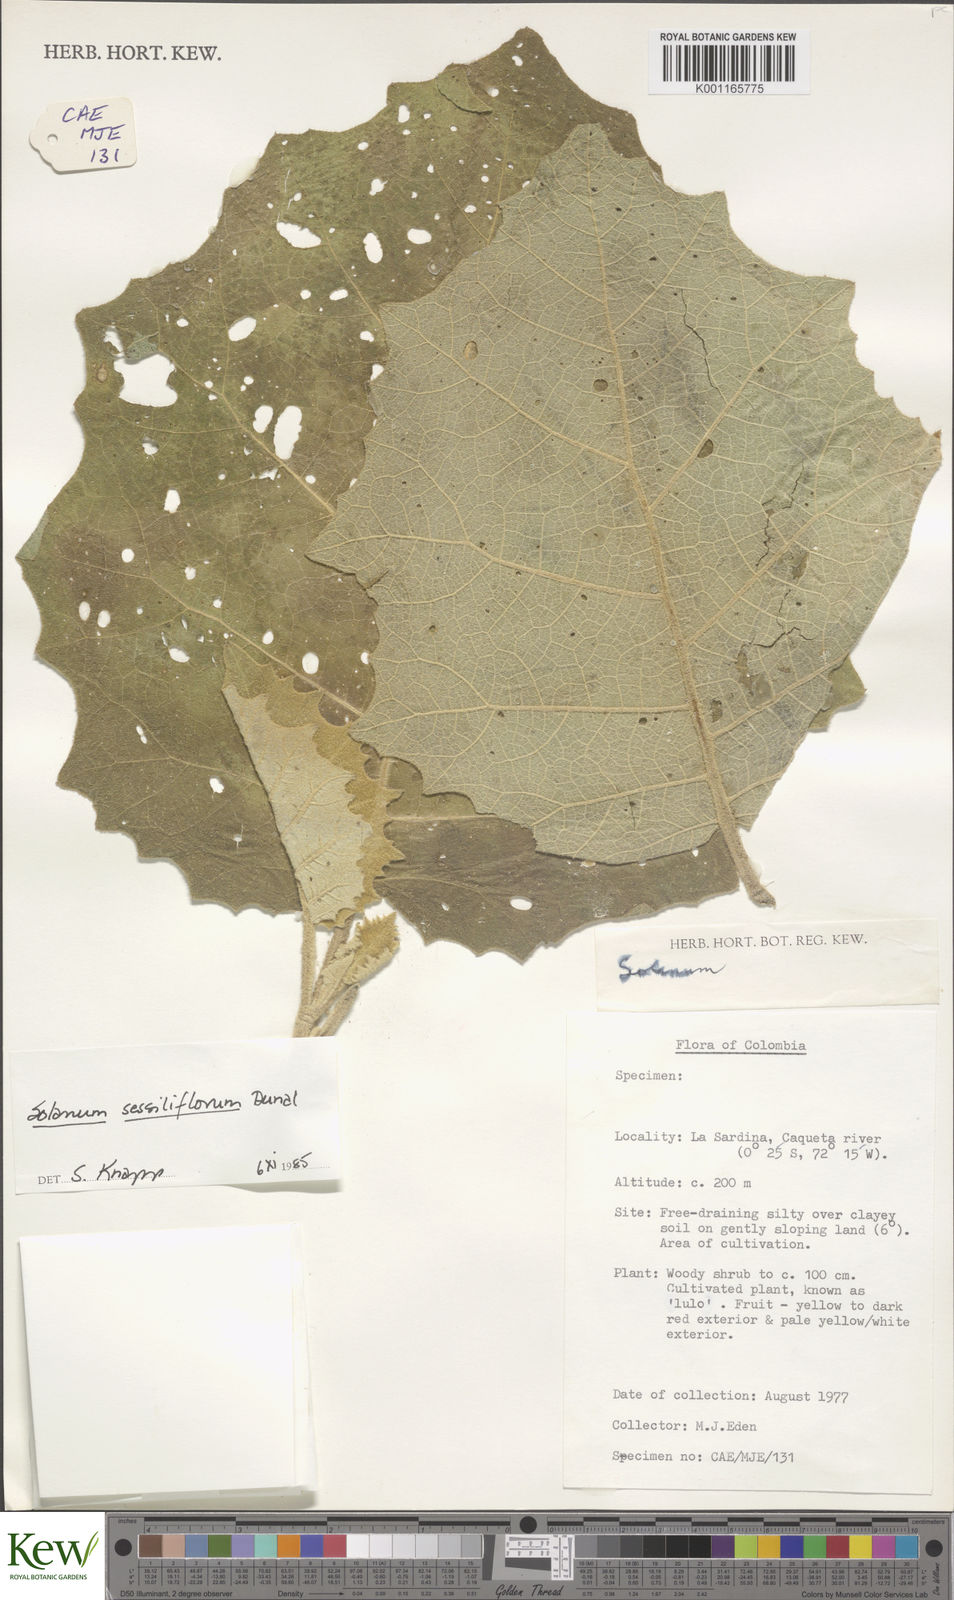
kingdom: Plantae
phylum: Tracheophyta
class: Magnoliopsida
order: Solanales
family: Solanaceae
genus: Solanum
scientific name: Solanum sessiliflorum
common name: Orinoco-apple
